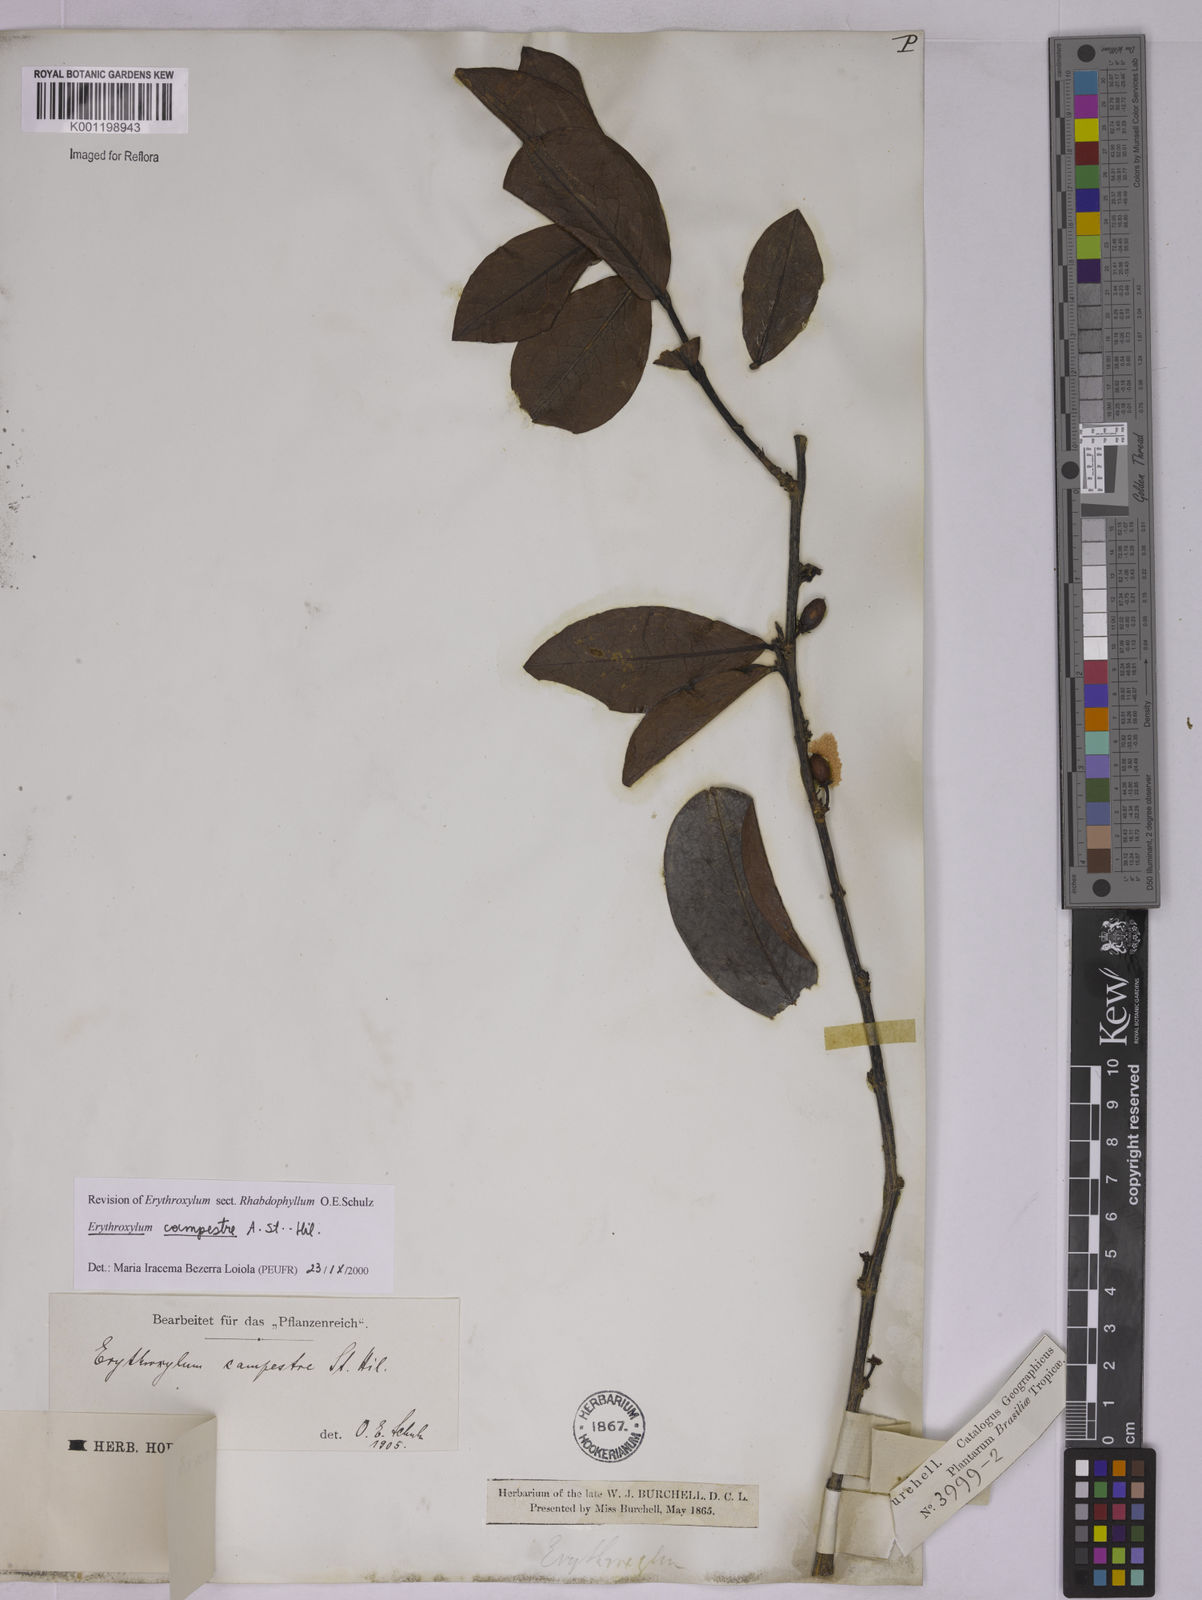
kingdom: Plantae
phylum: Tracheophyta
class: Magnoliopsida
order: Malpighiales
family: Erythroxylaceae
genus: Erythroxylum
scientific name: Erythroxylum campestre
